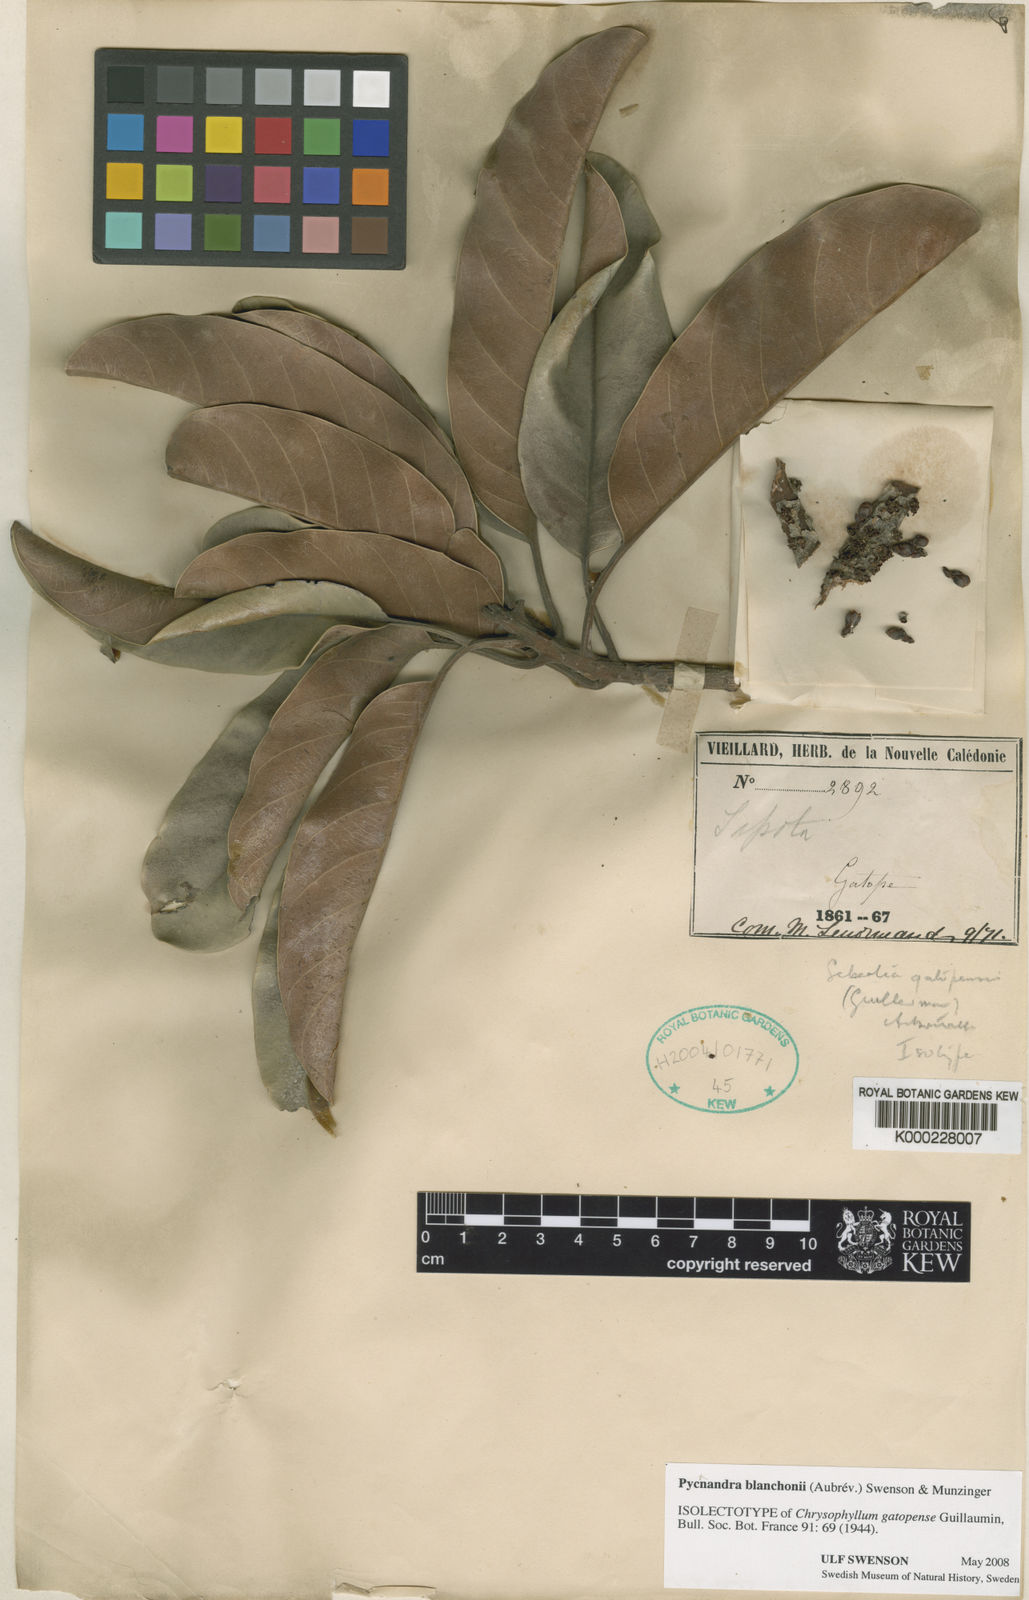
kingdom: Plantae
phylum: Tracheophyta
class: Magnoliopsida
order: Ericales
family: Sapotaceae
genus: Pycnandra
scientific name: Pycnandra blanchonii
